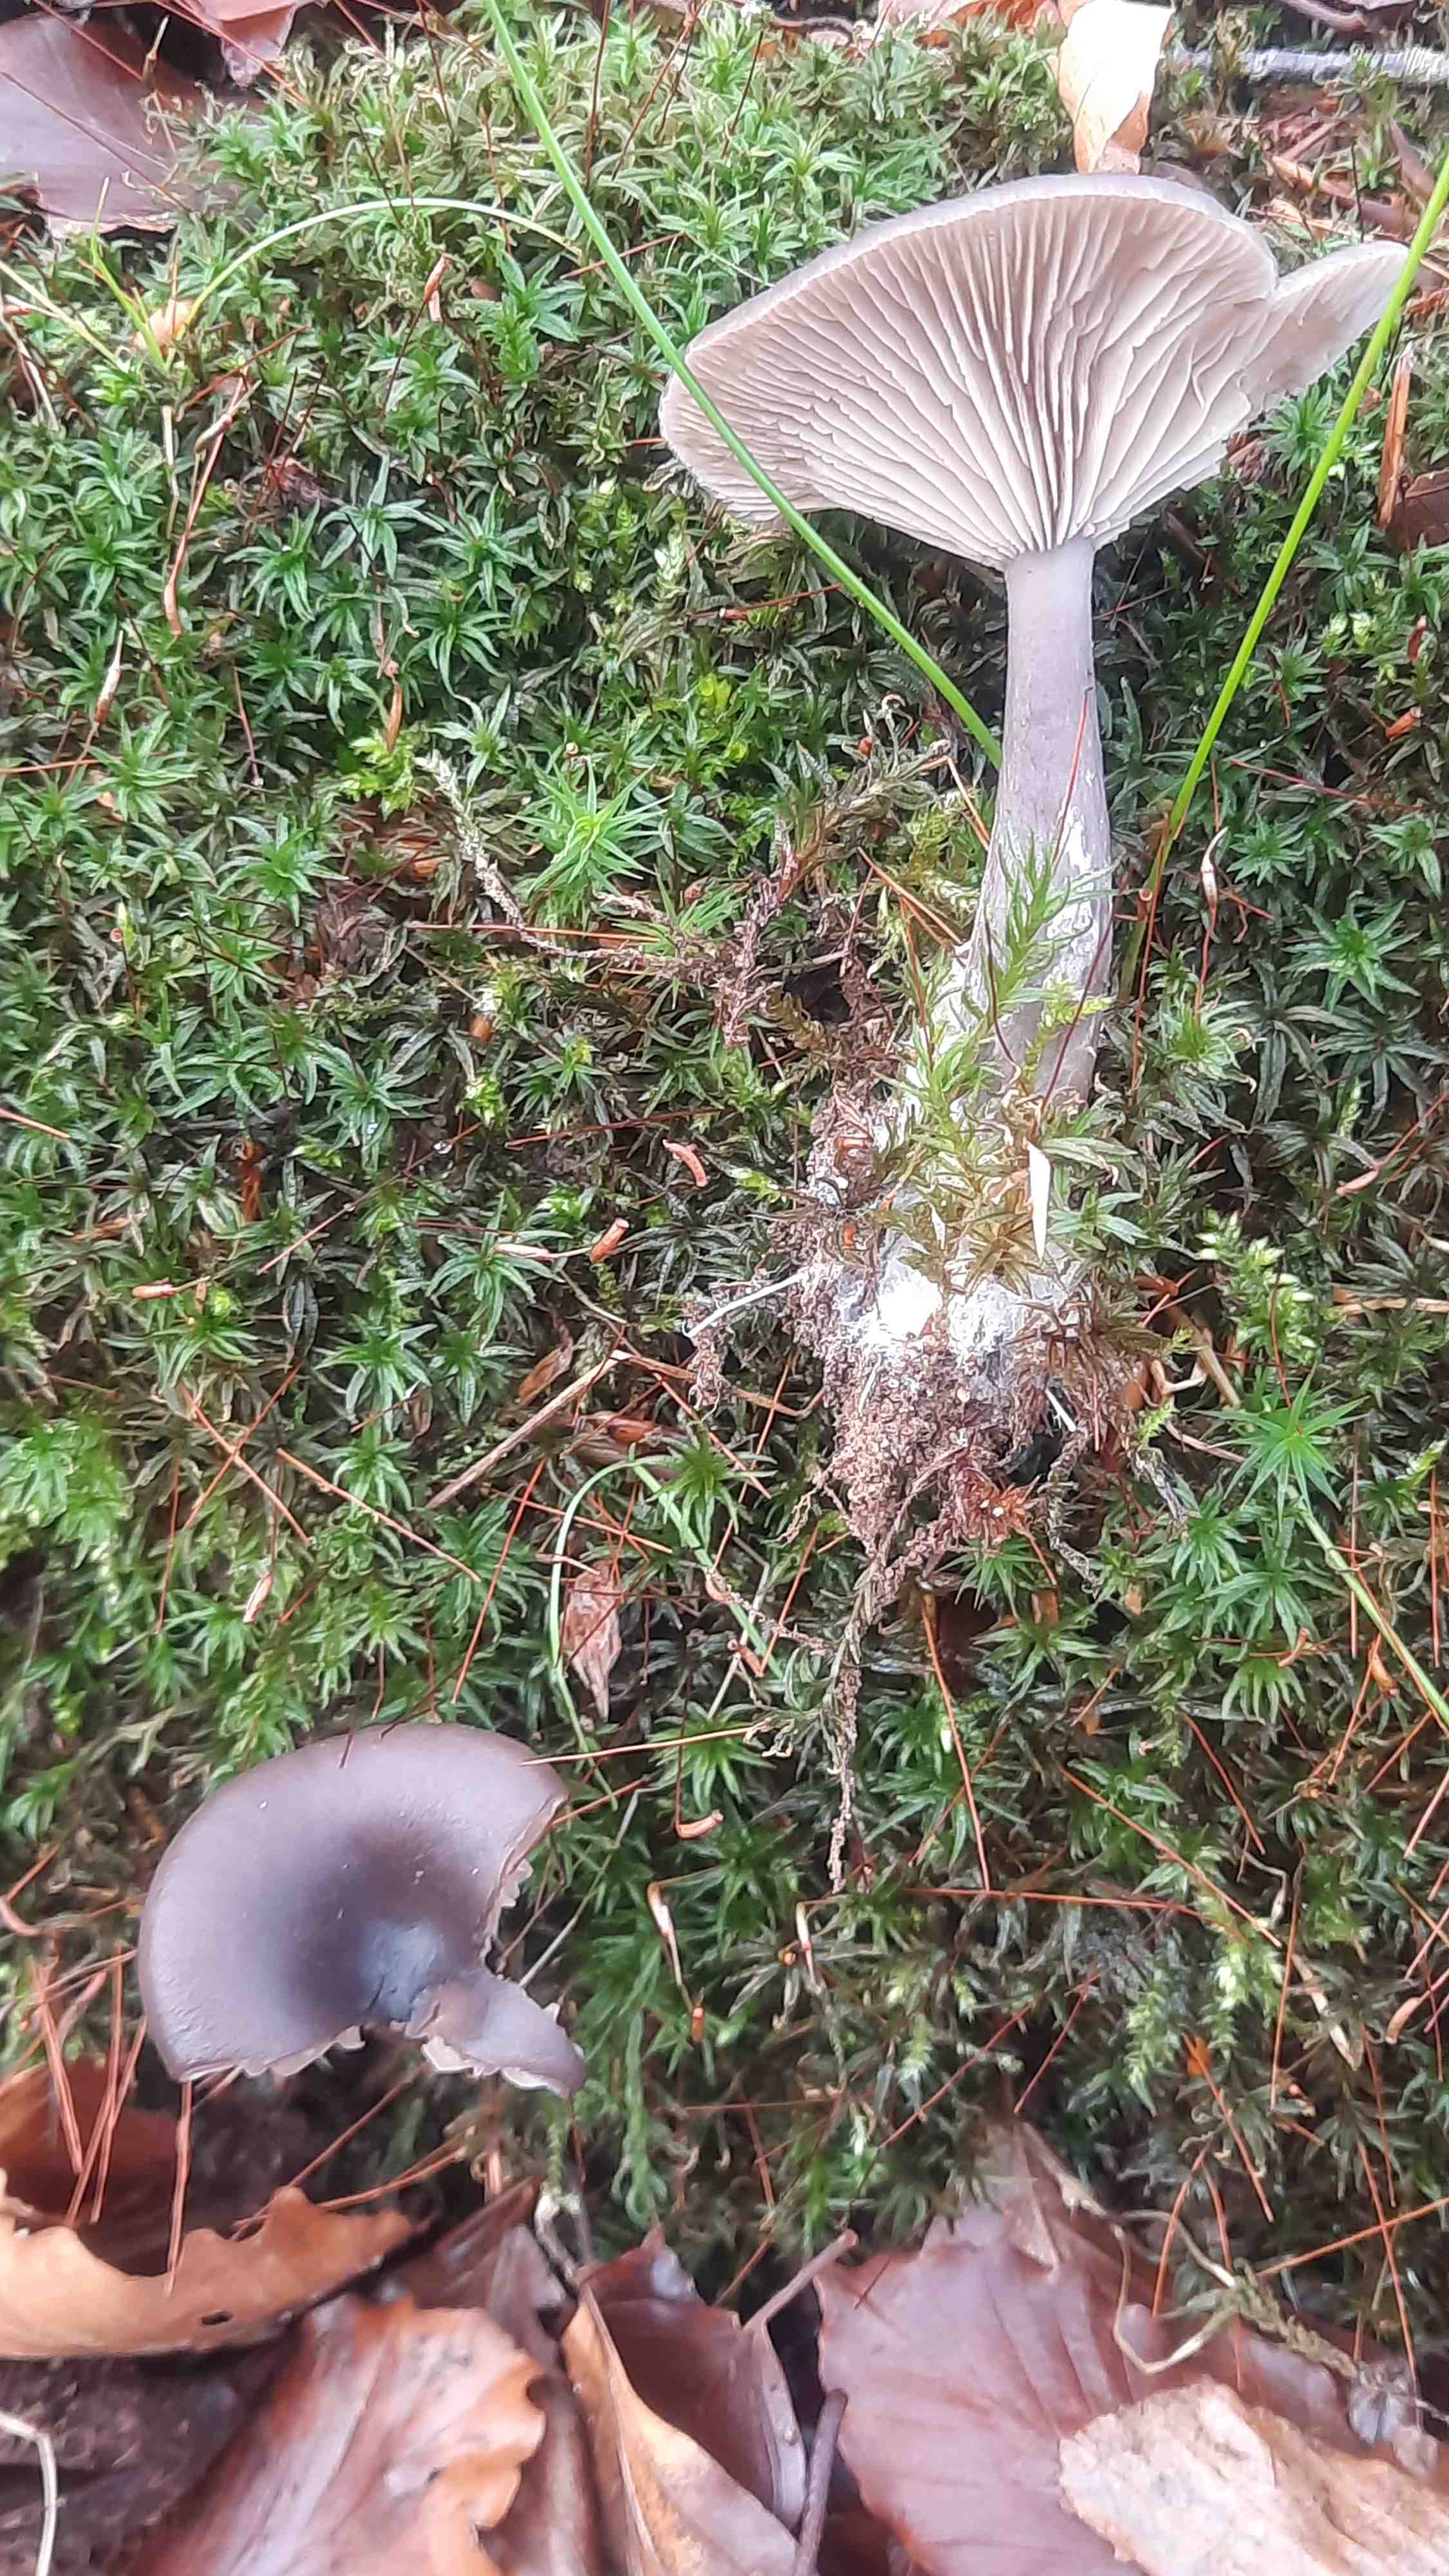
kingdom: Fungi
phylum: Basidiomycota
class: Agaricomycetes
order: Agaricales
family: Pseudoclitocybaceae
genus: Pseudoclitocybe
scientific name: Pseudoclitocybe cyathiformis
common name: almindelig bægertragthat
